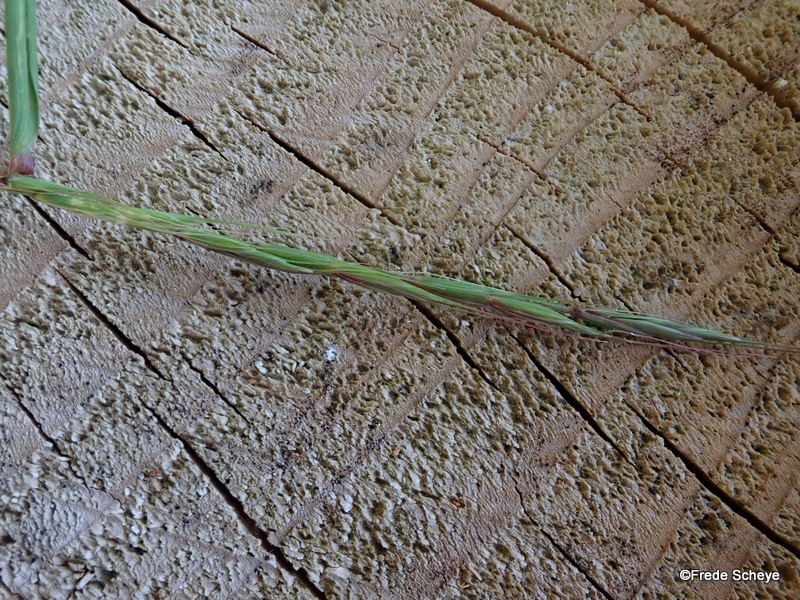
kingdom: Fungi
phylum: Basidiomycota
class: Pucciniomycetes
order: Pucciniales
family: Pucciniaceae
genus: Puccinia
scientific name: Puccinia brachypodii
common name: Rust fungus
